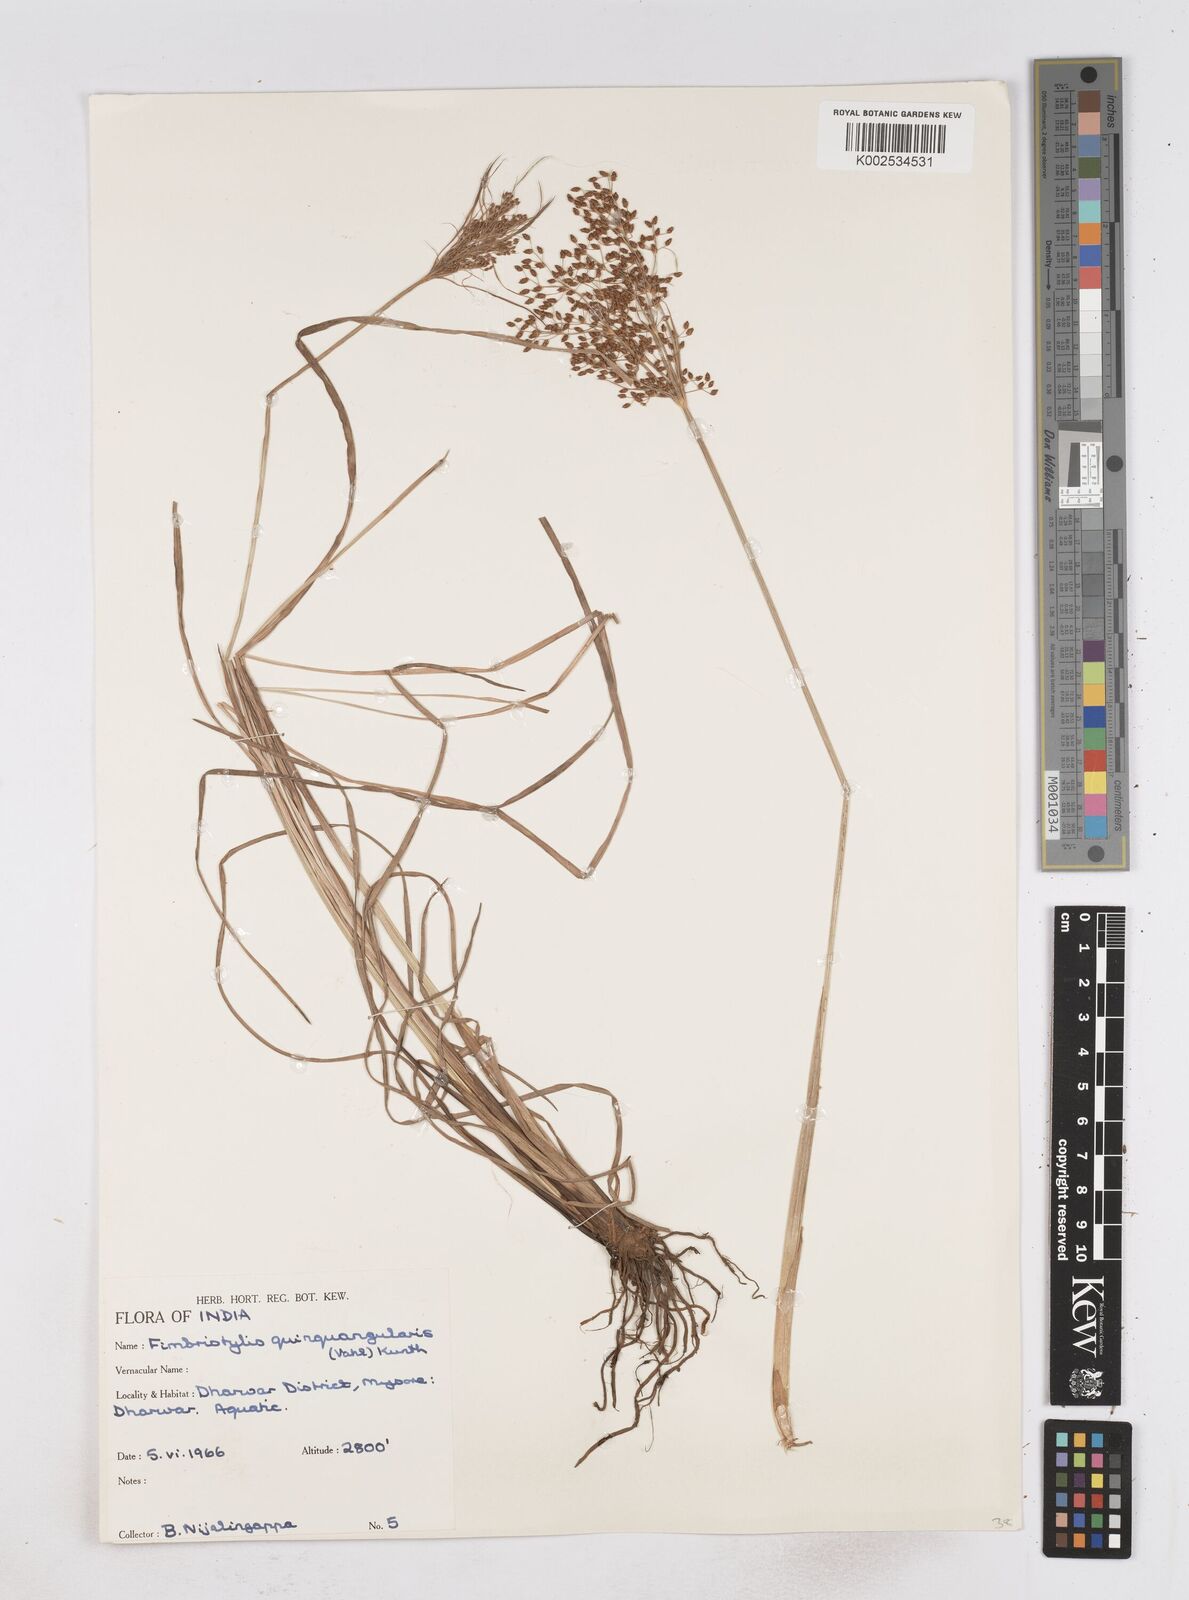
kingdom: Plantae
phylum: Tracheophyta
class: Liliopsida
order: Poales
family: Cyperaceae
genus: Fimbristylis
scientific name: Fimbristylis quinquangularis
